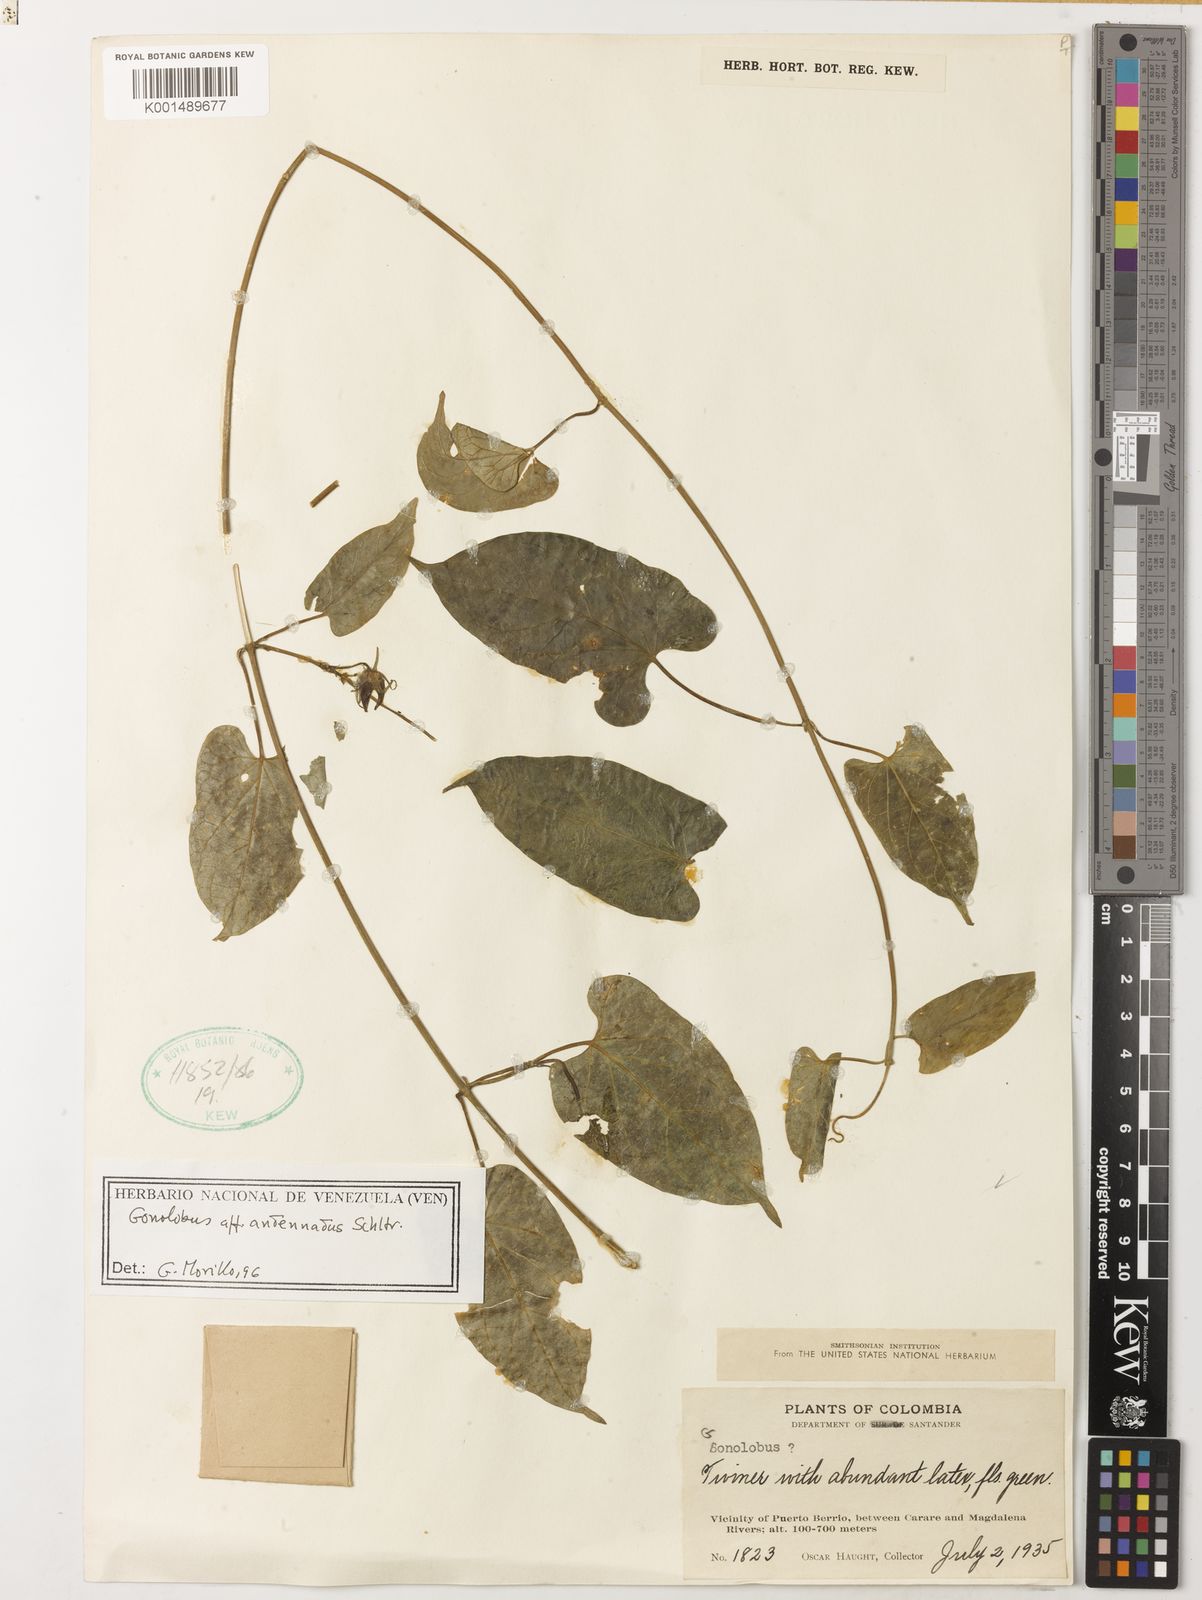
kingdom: Plantae
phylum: Tracheophyta
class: Magnoliopsida
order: Gentianales
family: Apocynaceae
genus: Gonolobus
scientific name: Gonolobus antennatus
